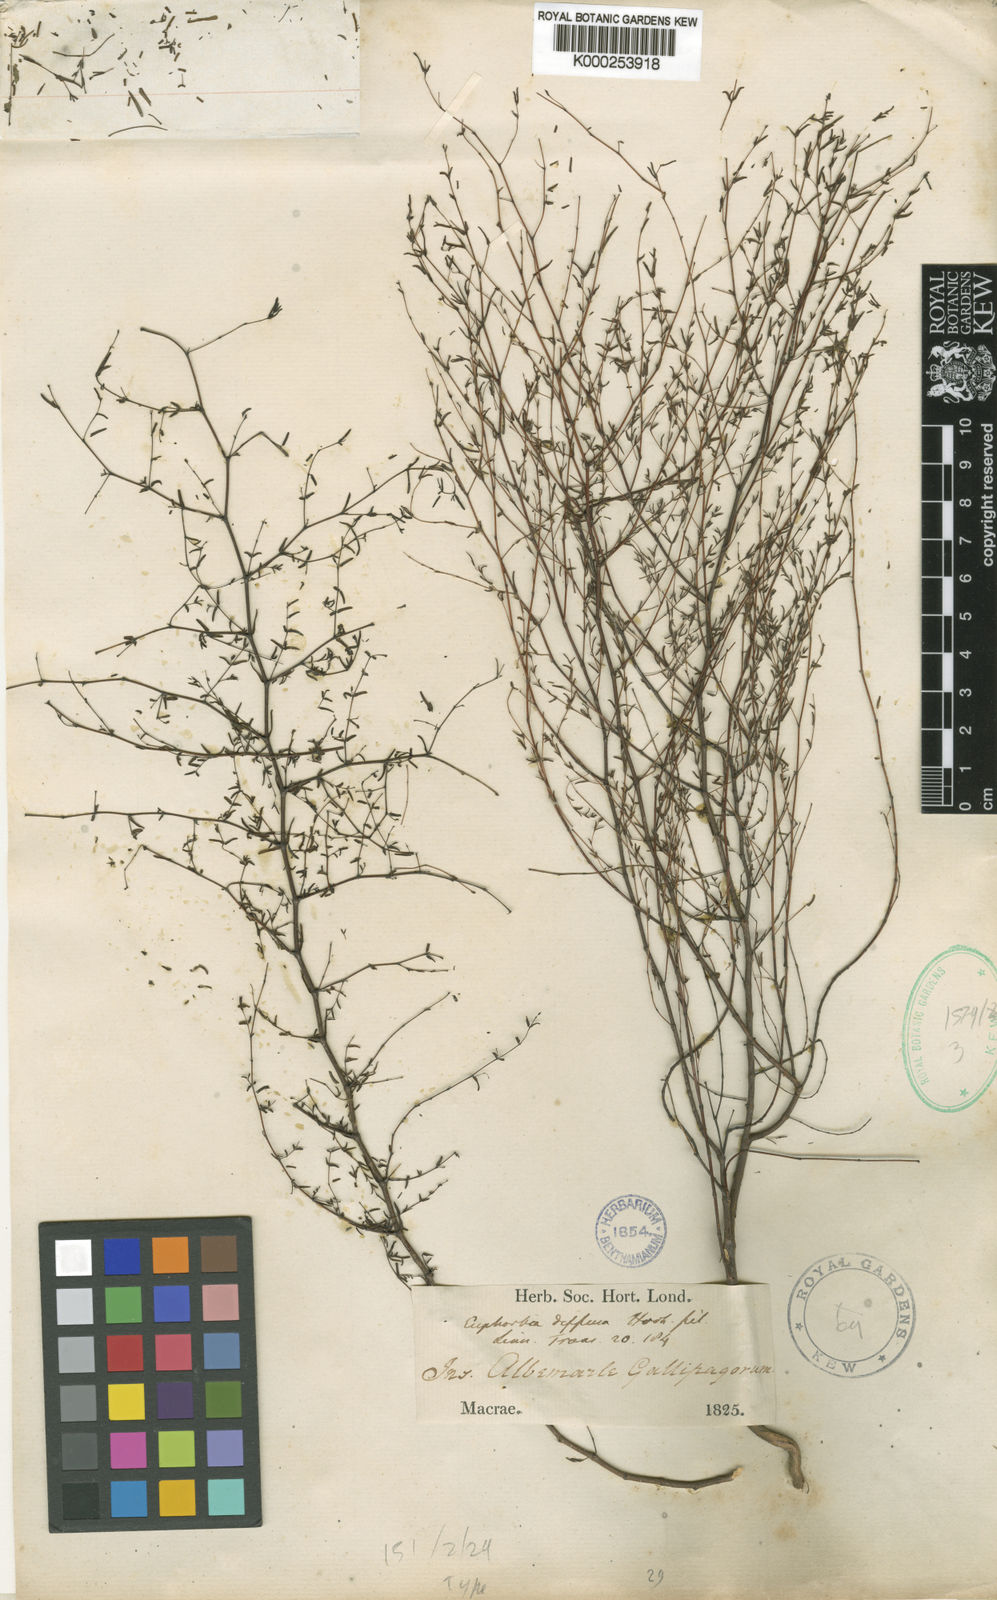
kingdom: Plantae
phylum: Tracheophyta
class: Magnoliopsida
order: Malpighiales
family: Euphorbiaceae
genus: Euphorbia
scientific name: Euphorbia punctulata
